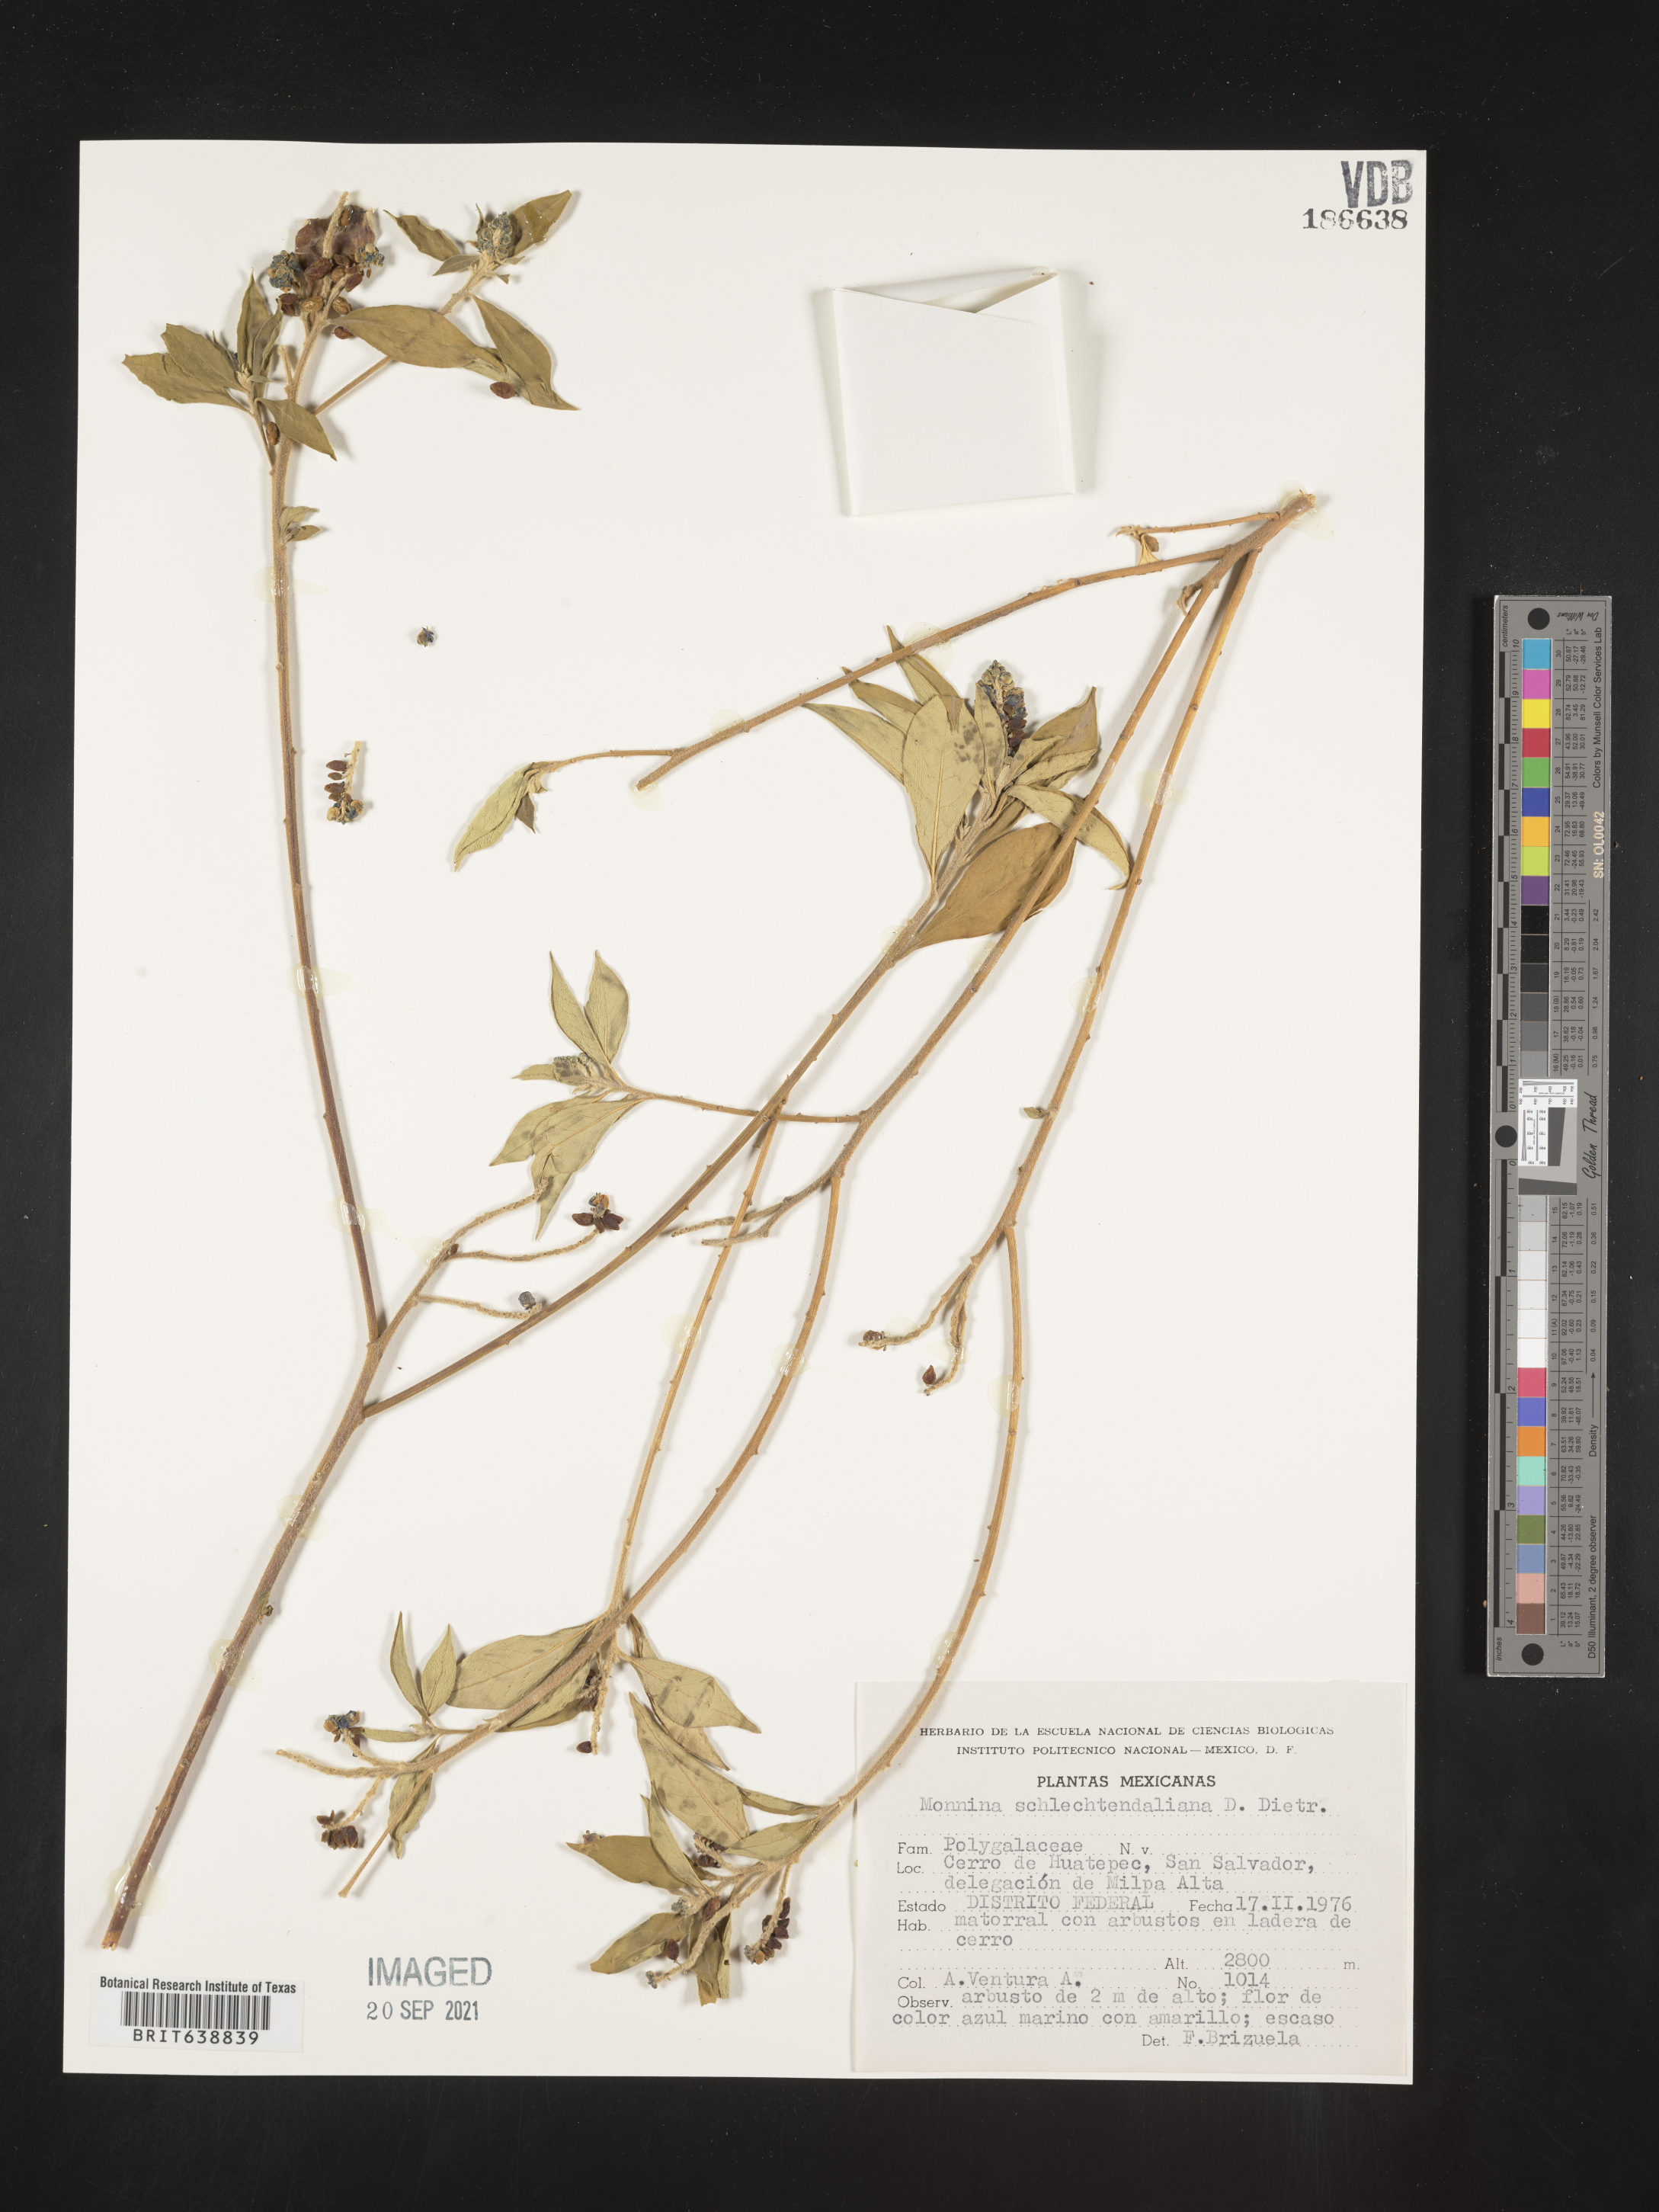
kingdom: Plantae
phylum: Tracheophyta
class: Magnoliopsida
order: Fabales
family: Polygalaceae
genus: Monnina
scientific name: Monnina
